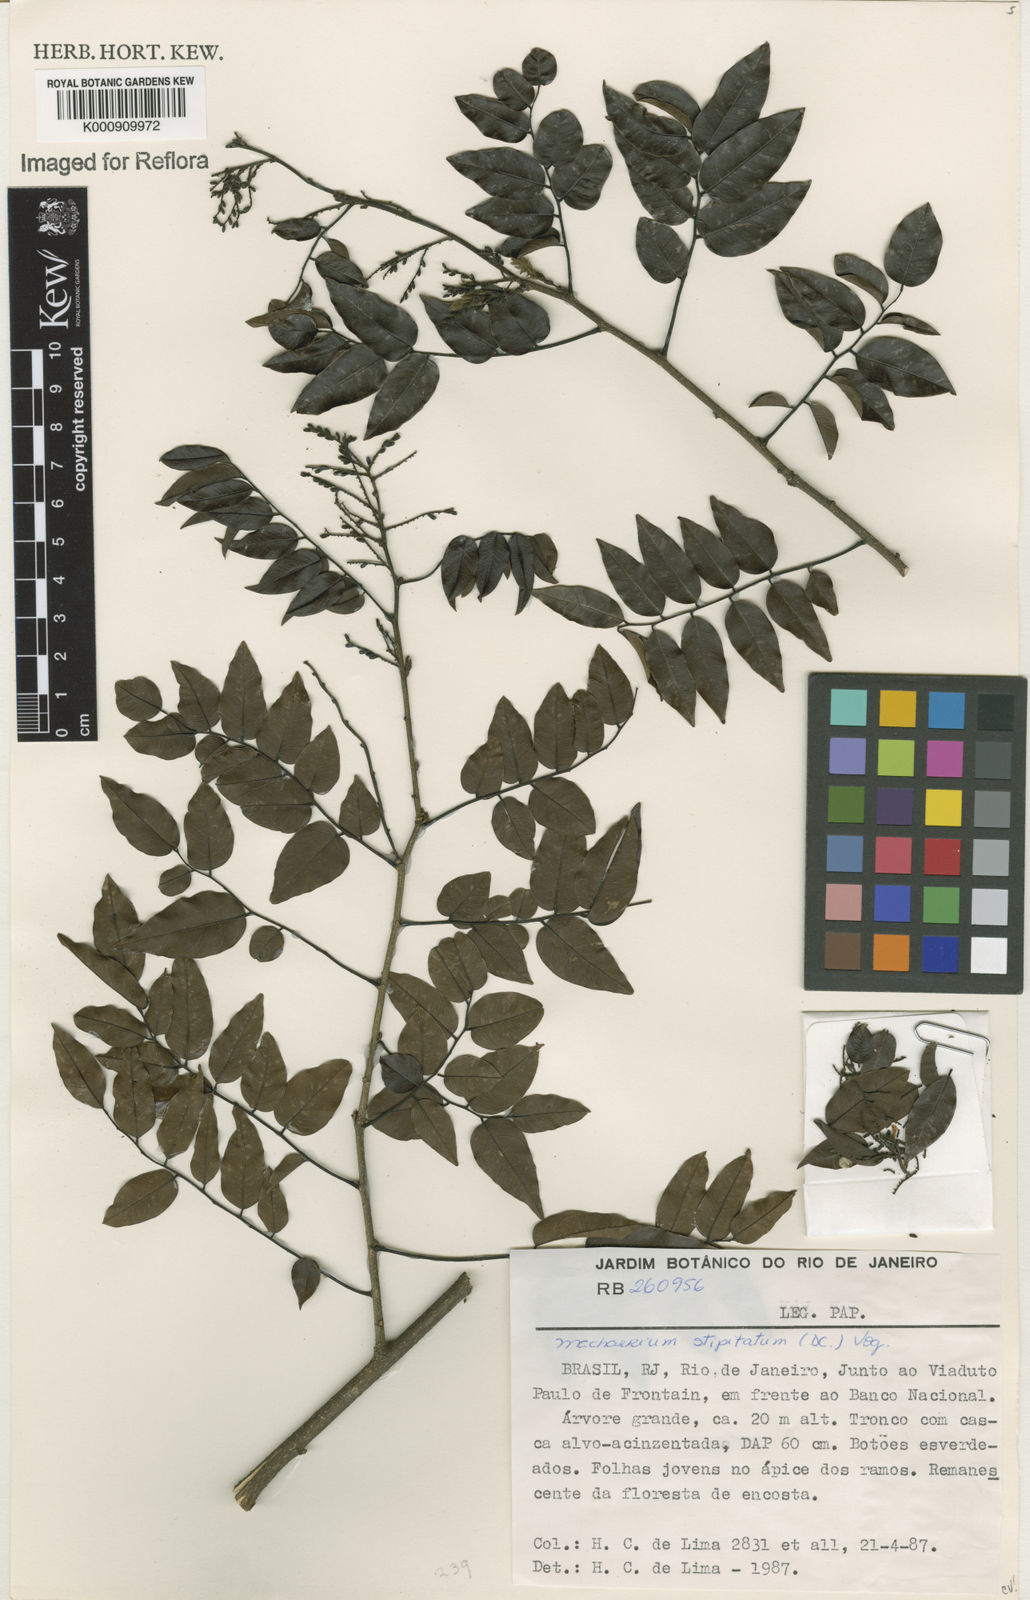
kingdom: Plantae
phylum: Tracheophyta
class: Magnoliopsida
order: Fabales
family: Fabaceae
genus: Machaerium
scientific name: Machaerium stipitatum
